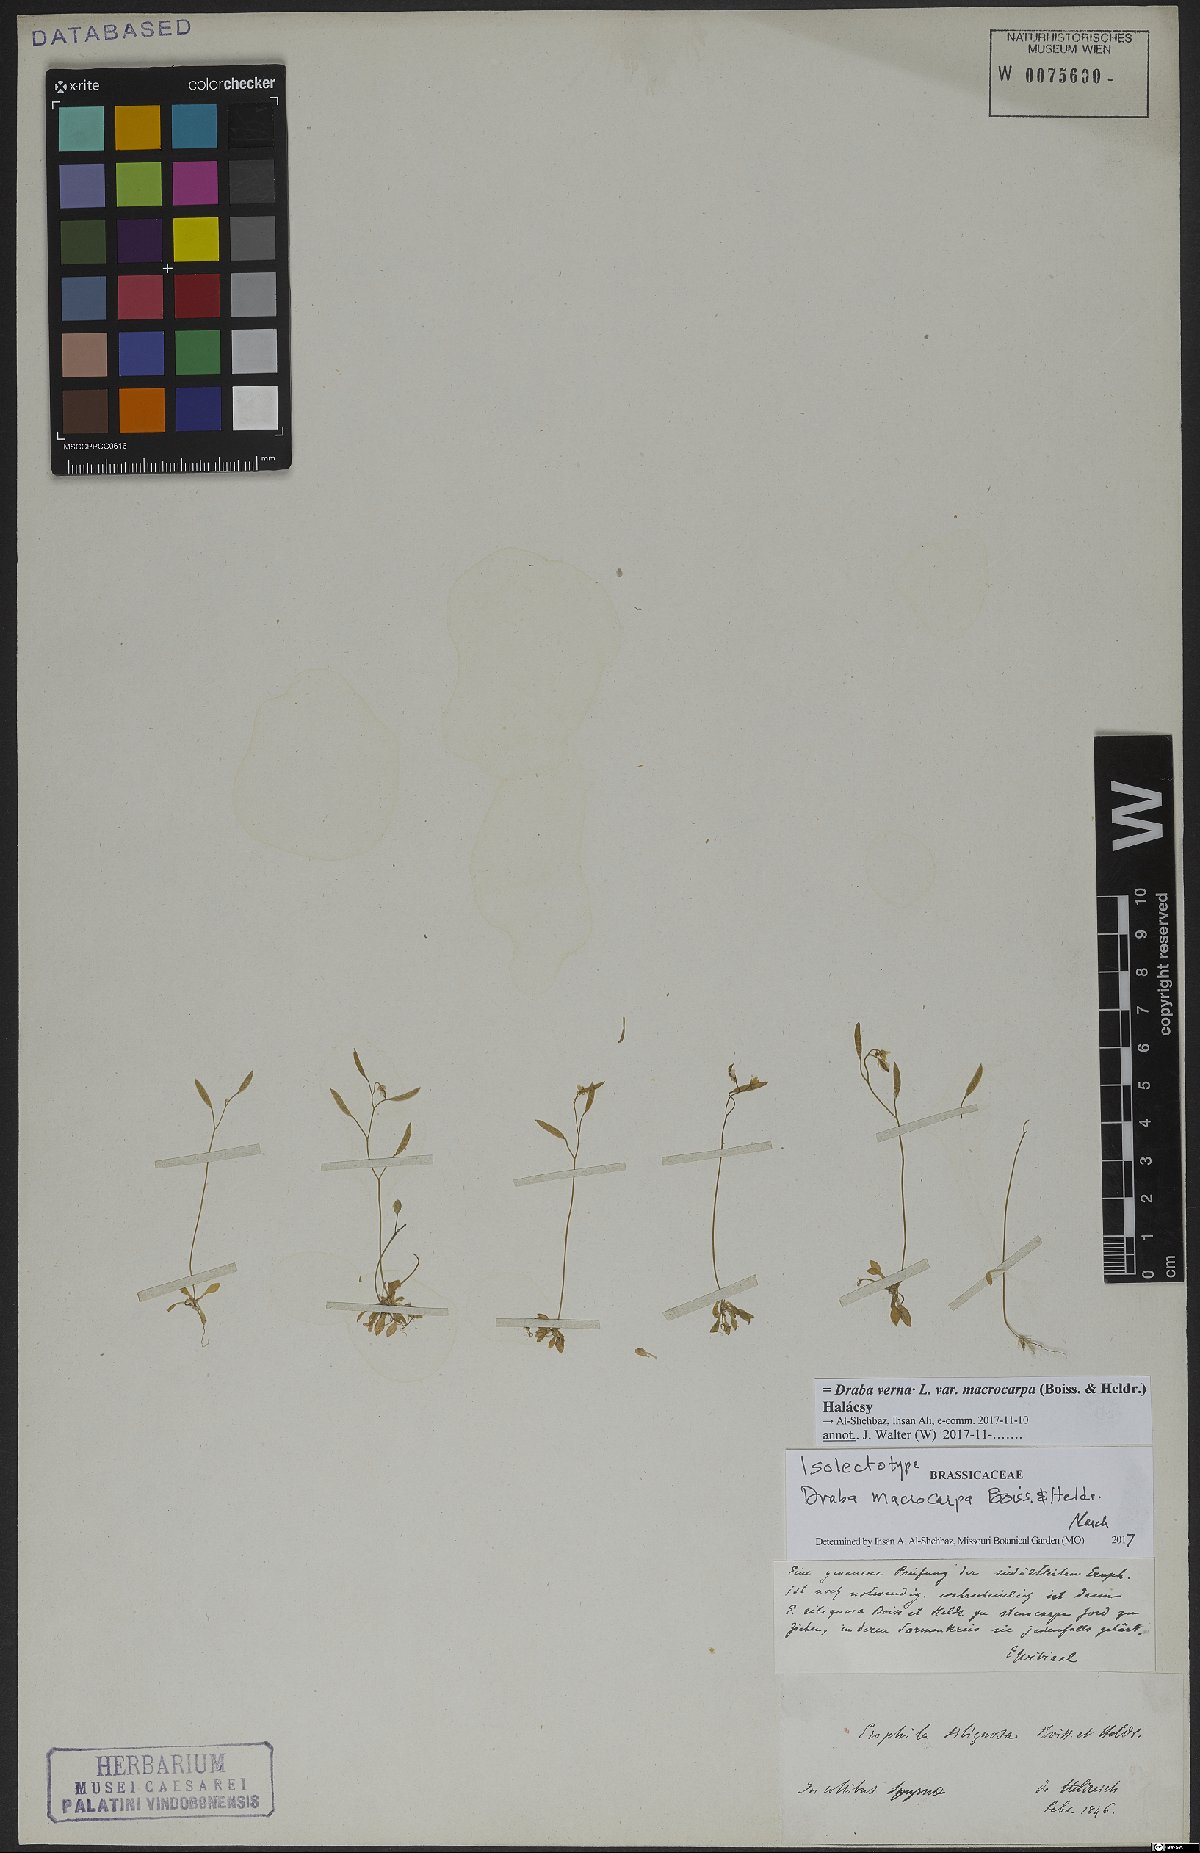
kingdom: Plantae
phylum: Tracheophyta
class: Magnoliopsida
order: Brassicales
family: Brassicaceae
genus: Draba
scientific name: Draba verna
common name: Spring draba
